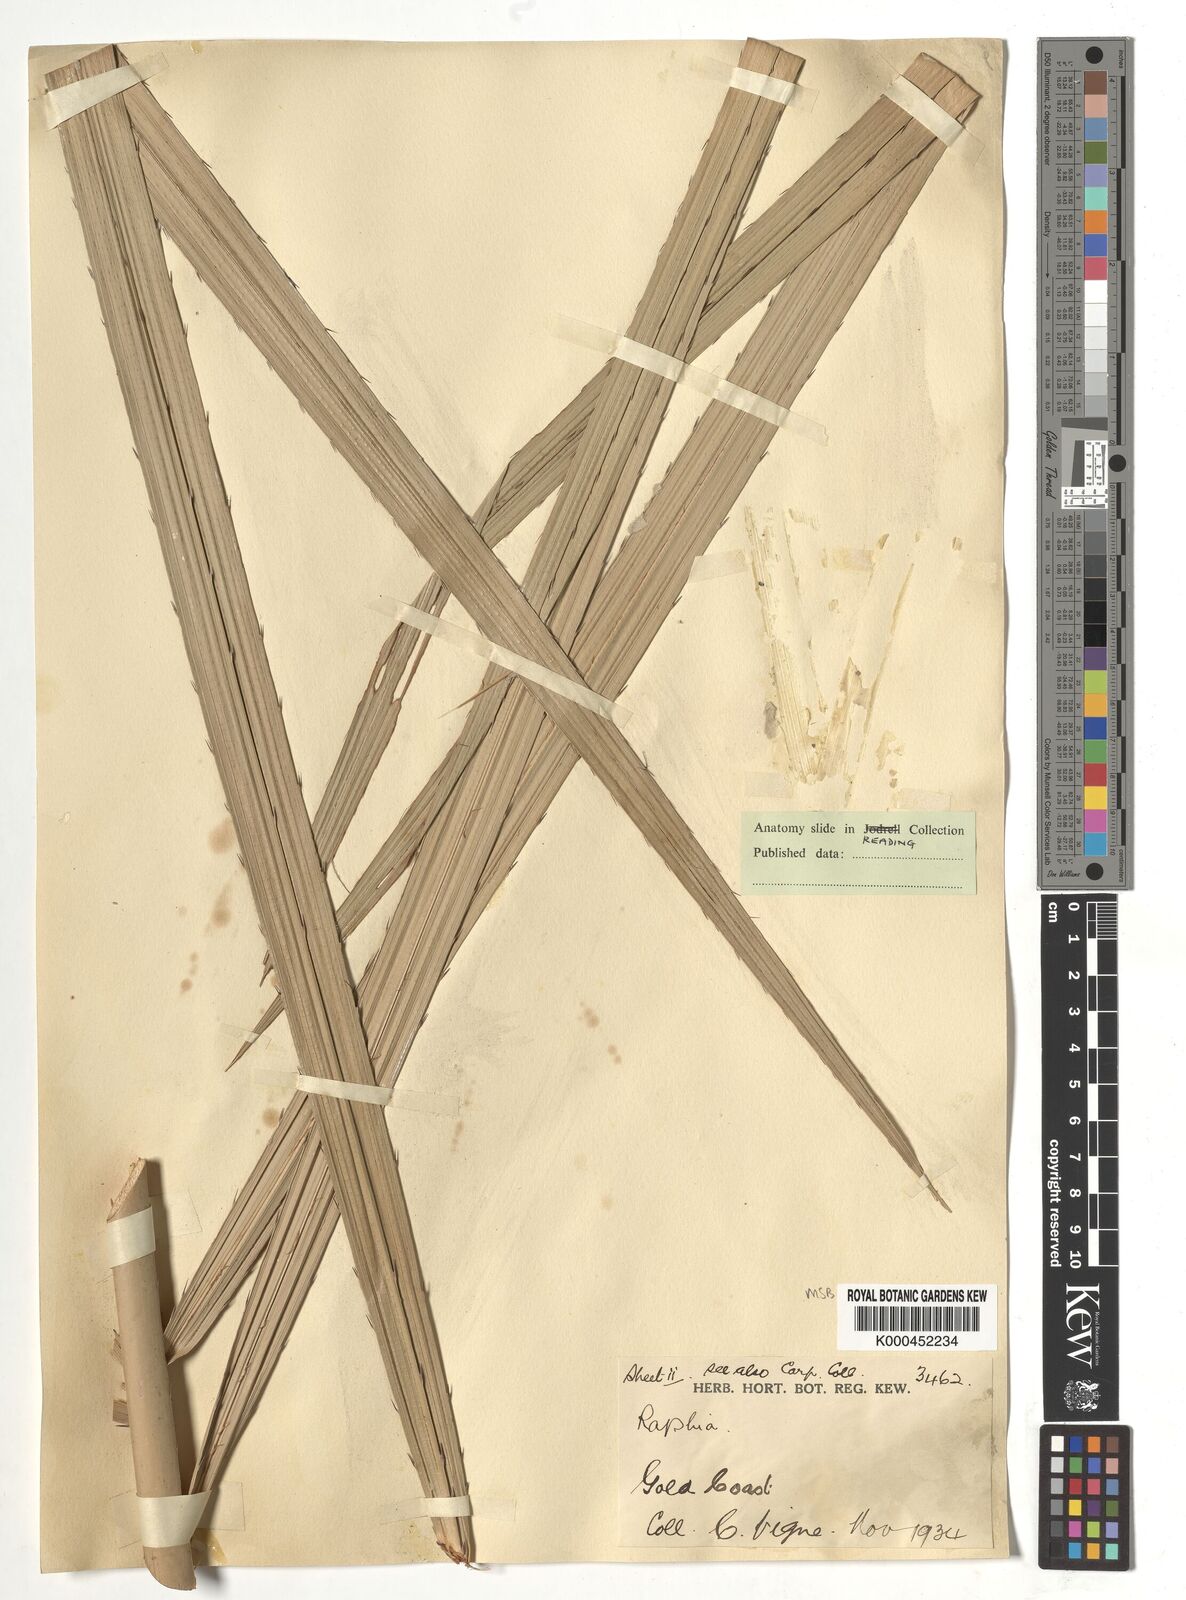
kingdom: Plantae
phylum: Tracheophyta
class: Liliopsida
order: Arecales
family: Arecaceae
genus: Raphia
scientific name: Raphia sudanica
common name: Northern raphia
